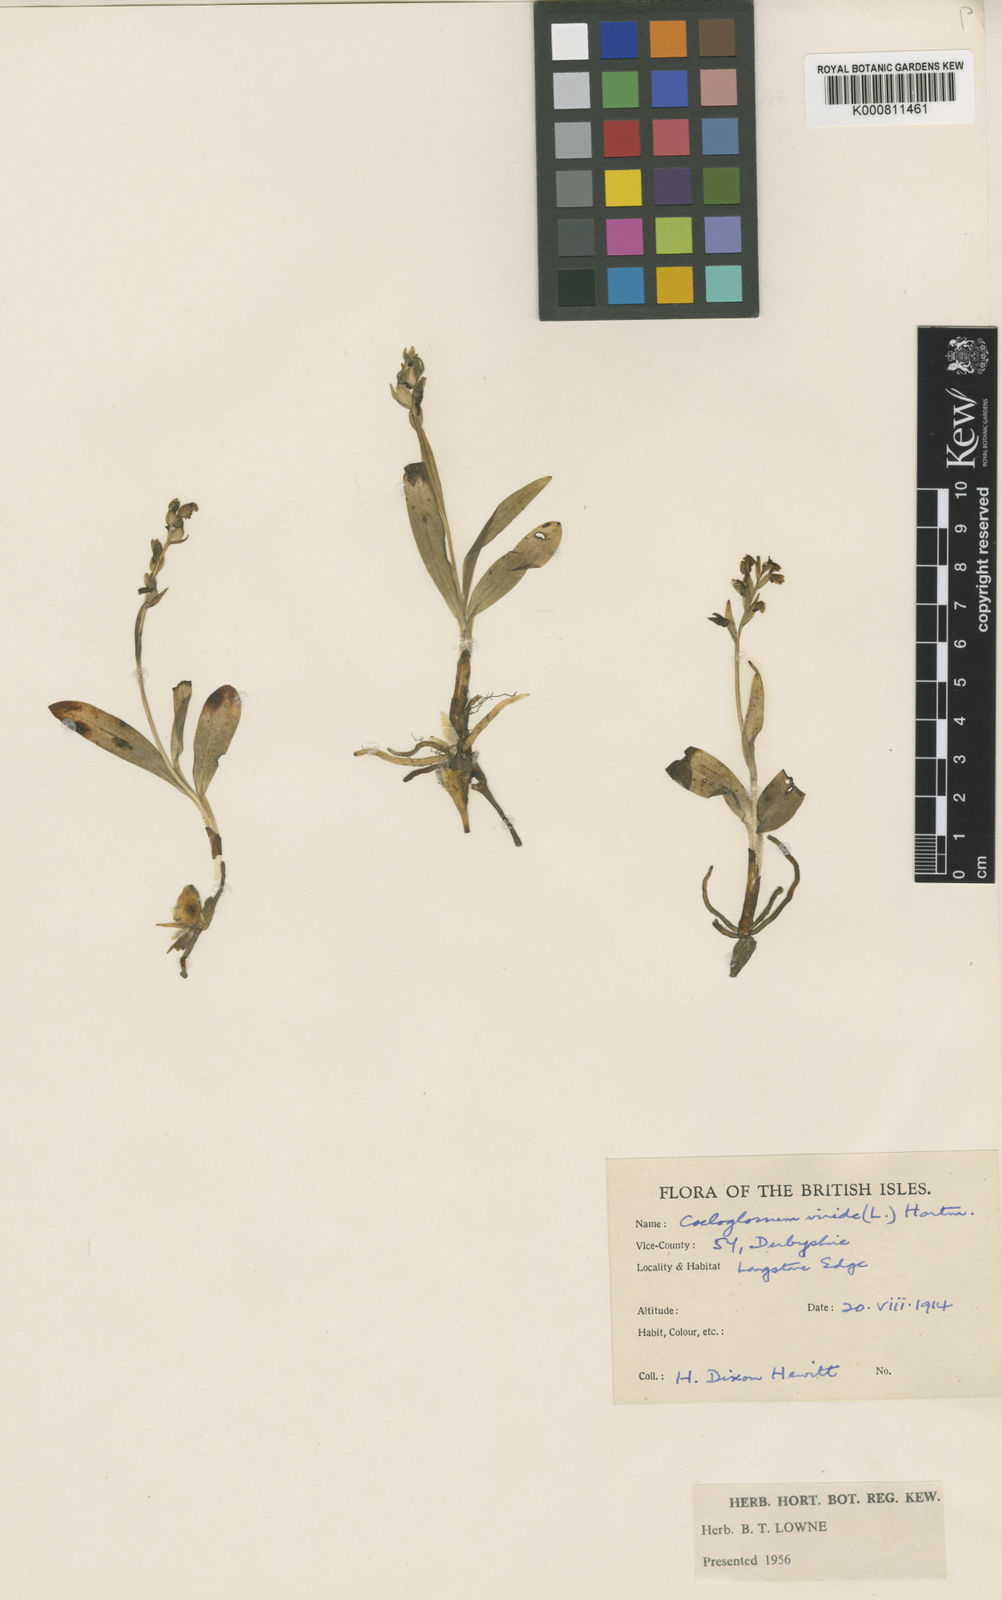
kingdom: Plantae
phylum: Tracheophyta
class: Liliopsida
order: Asparagales
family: Orchidaceae
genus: Dactylorhiza
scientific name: Dactylorhiza viridis
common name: Longbract frog orchid
